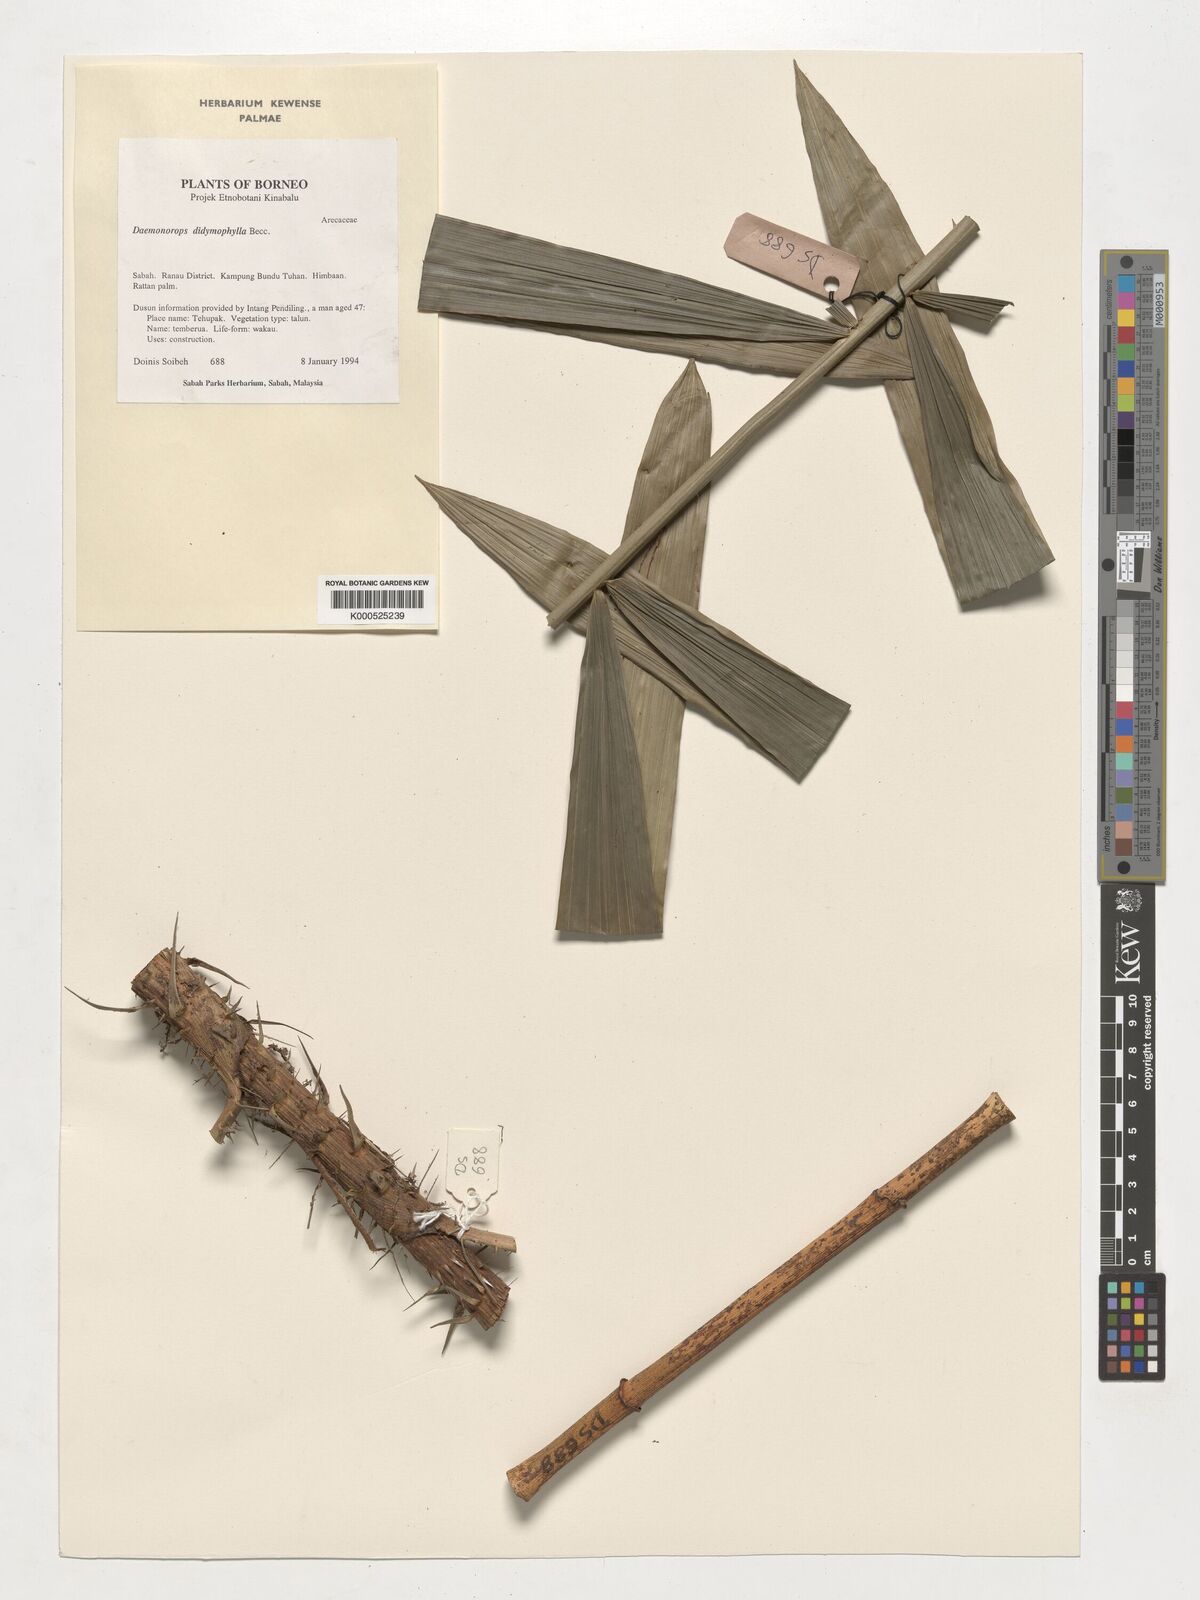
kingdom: Plantae
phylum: Tracheophyta
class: Liliopsida
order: Arecales
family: Arecaceae
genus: Calamus
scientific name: Calamus gracilipes
